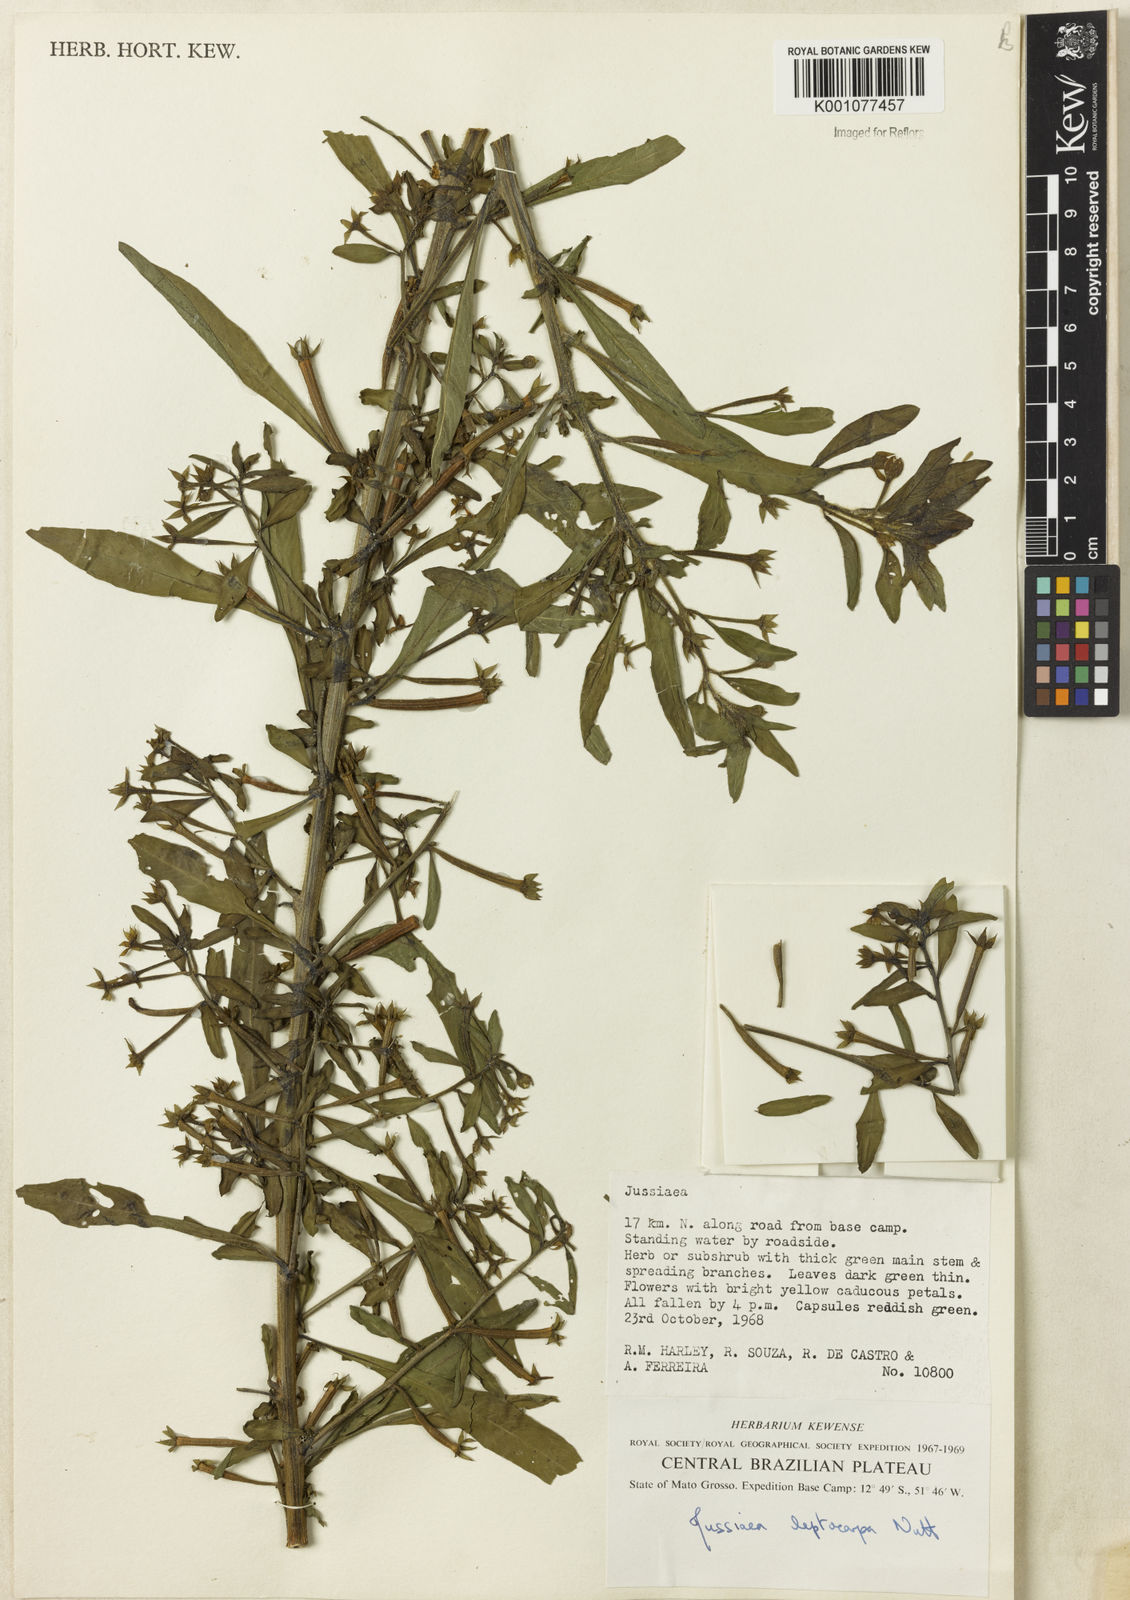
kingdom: Plantae
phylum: Tracheophyta
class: Magnoliopsida
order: Myrtales
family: Onagraceae
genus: Ludwigia
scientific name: Ludwigia leptocarpa
